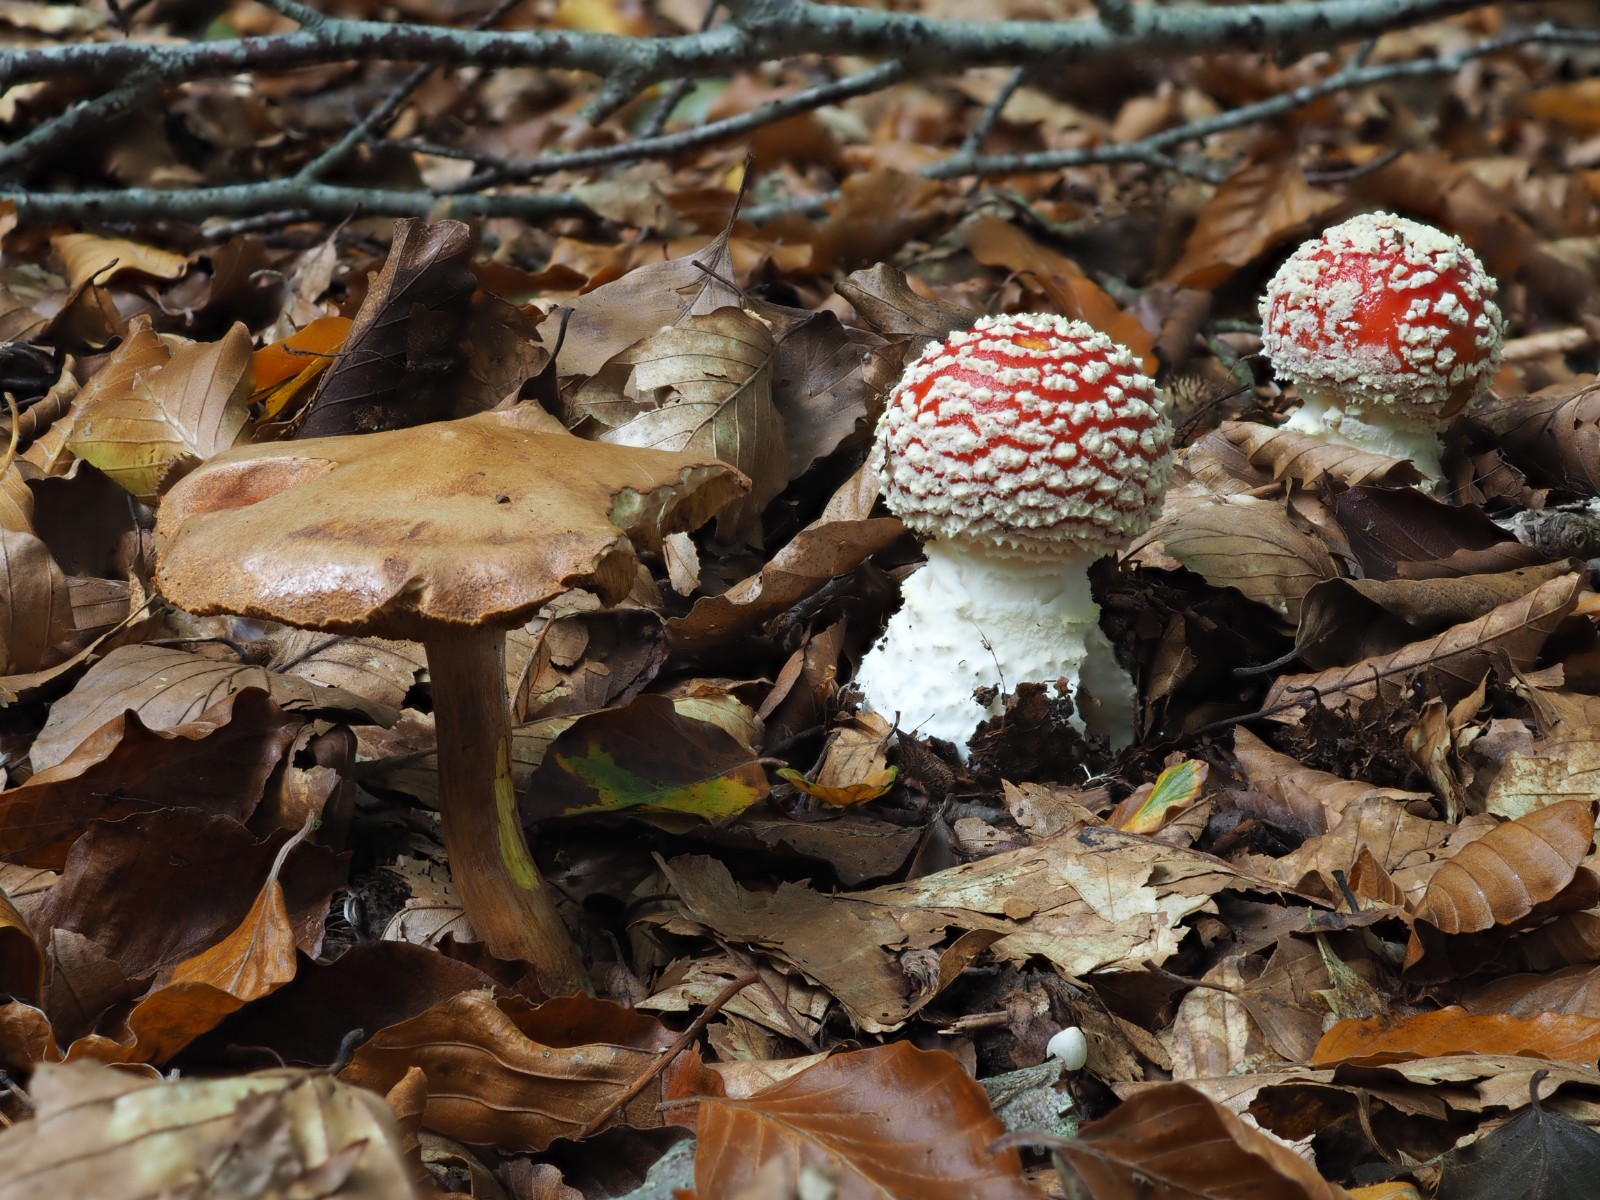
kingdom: Fungi
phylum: Basidiomycota
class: Agaricomycetes
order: Boletales
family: Boletaceae
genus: Chalciporus
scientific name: Chalciporus piperatus
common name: peberrørhat
